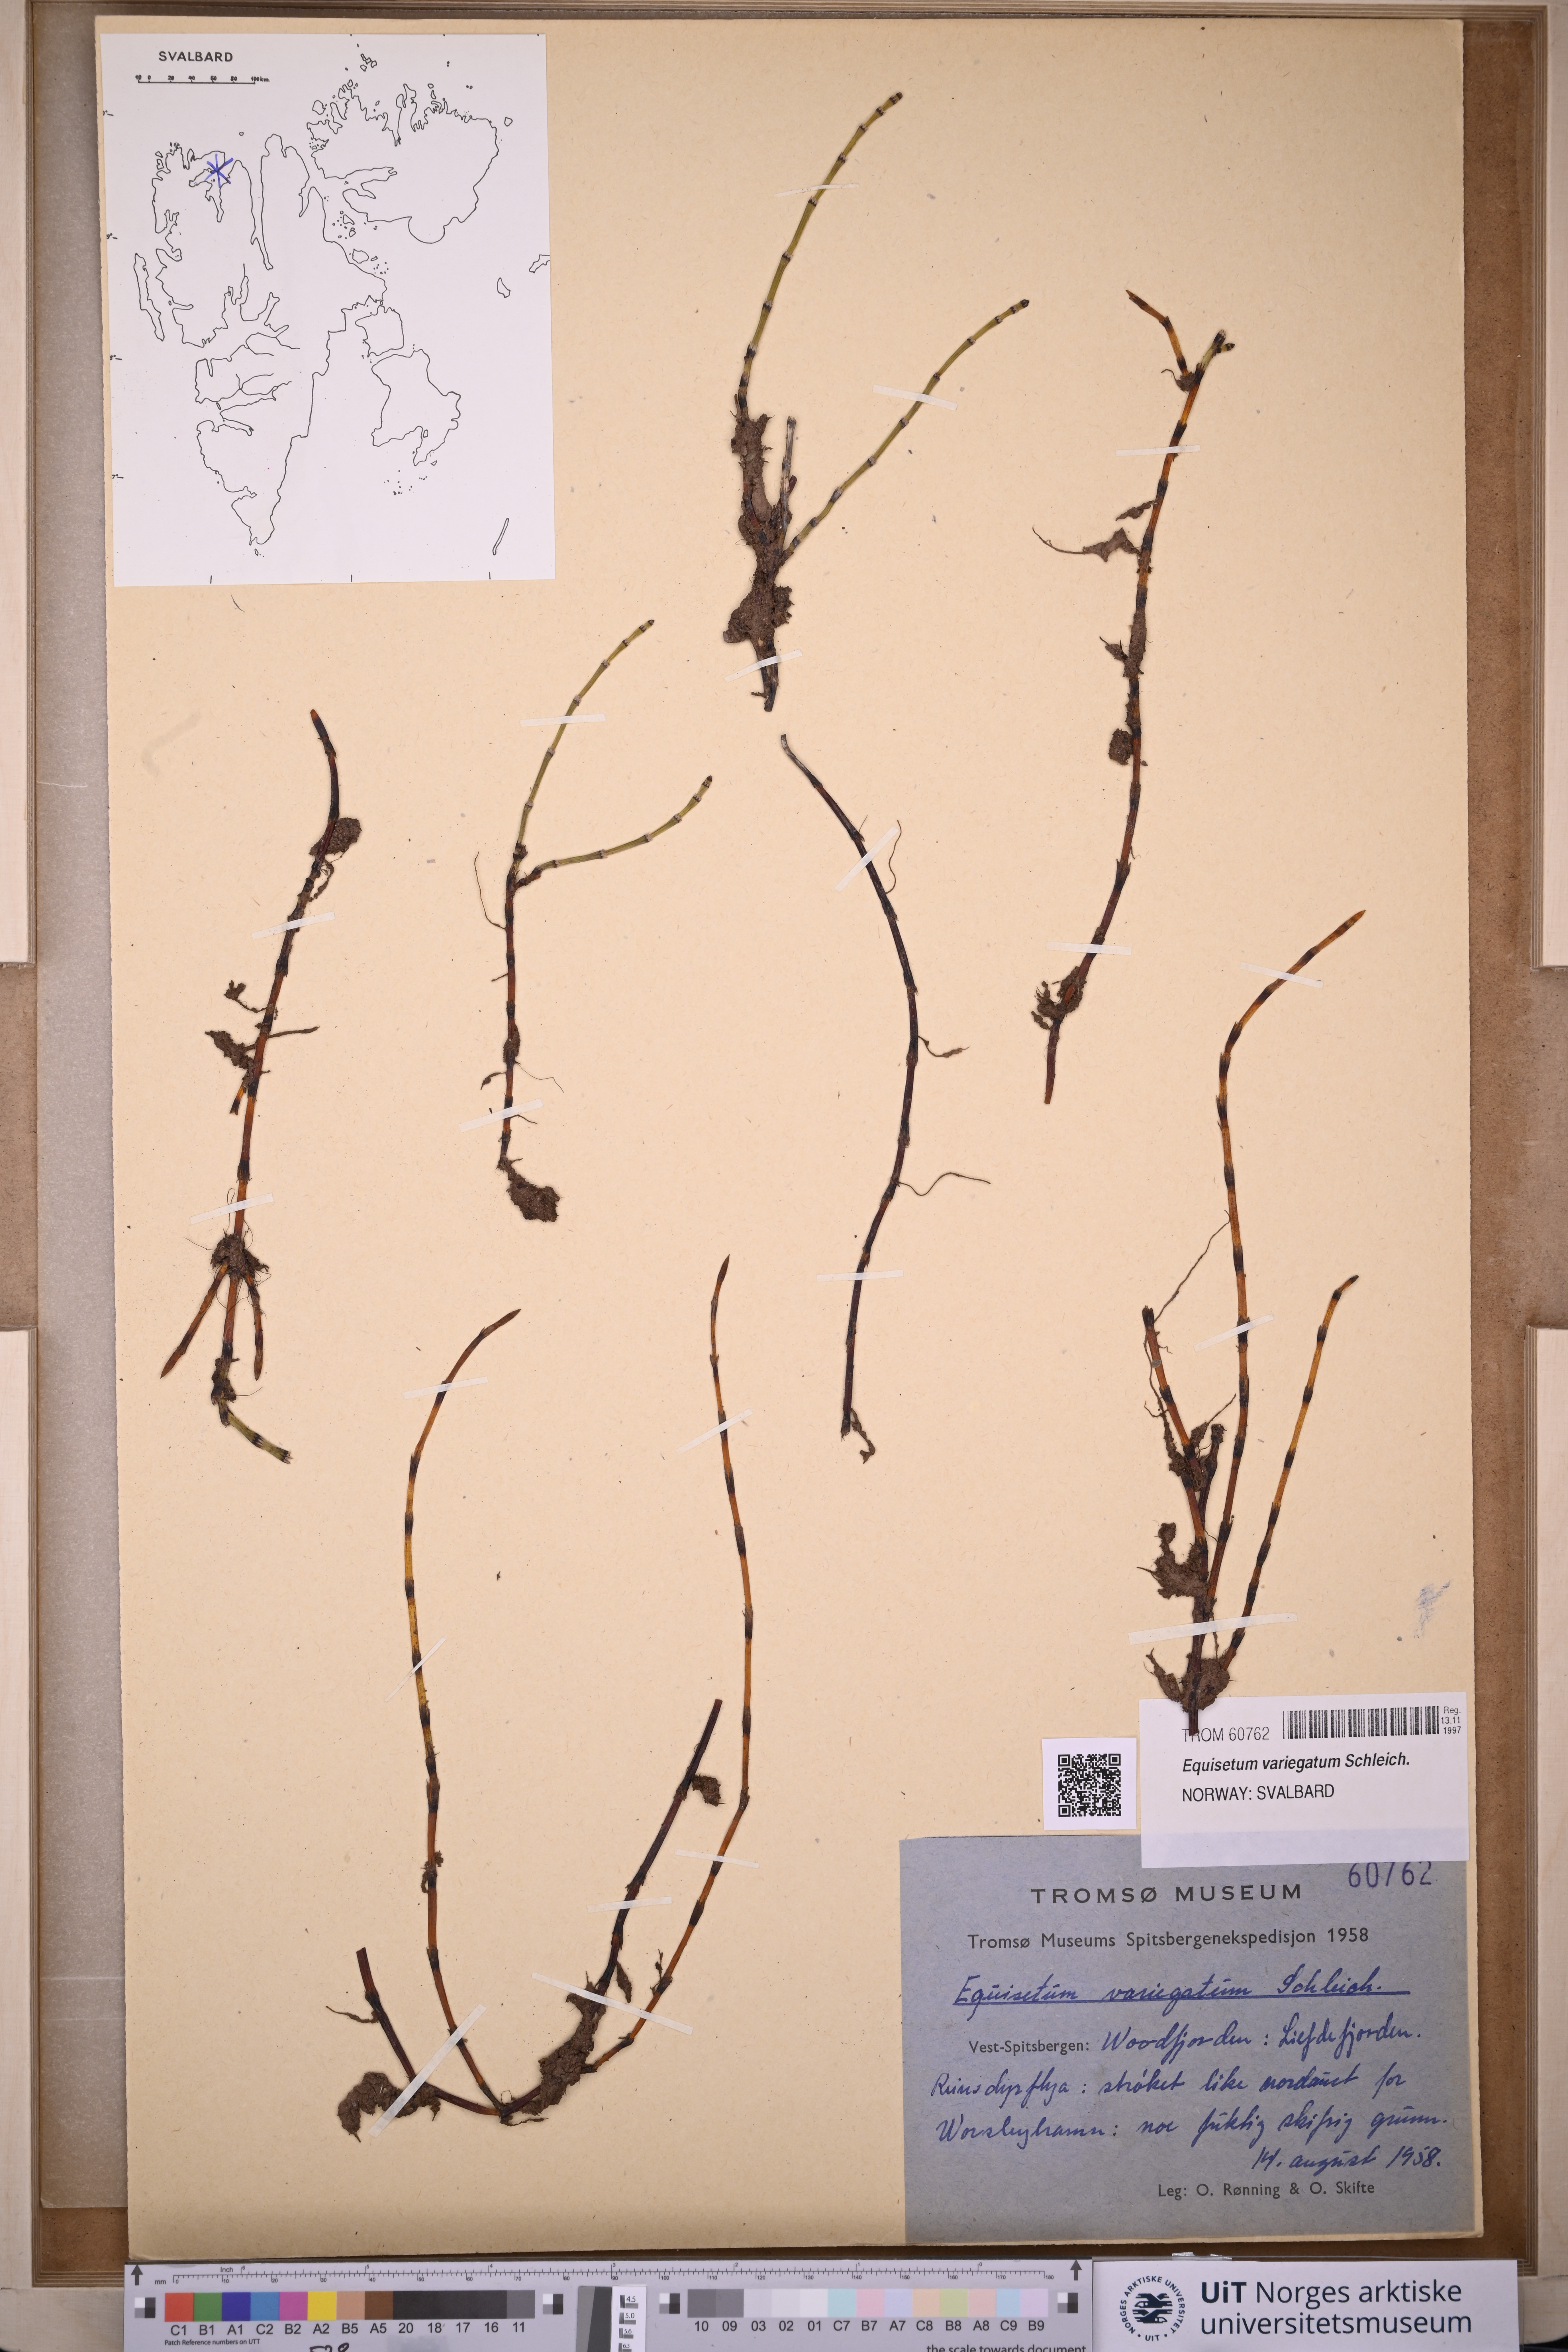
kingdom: Plantae
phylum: Tracheophyta
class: Polypodiopsida
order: Equisetales
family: Equisetaceae
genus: Equisetum
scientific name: Equisetum variegatum
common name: Variegated horsetail
